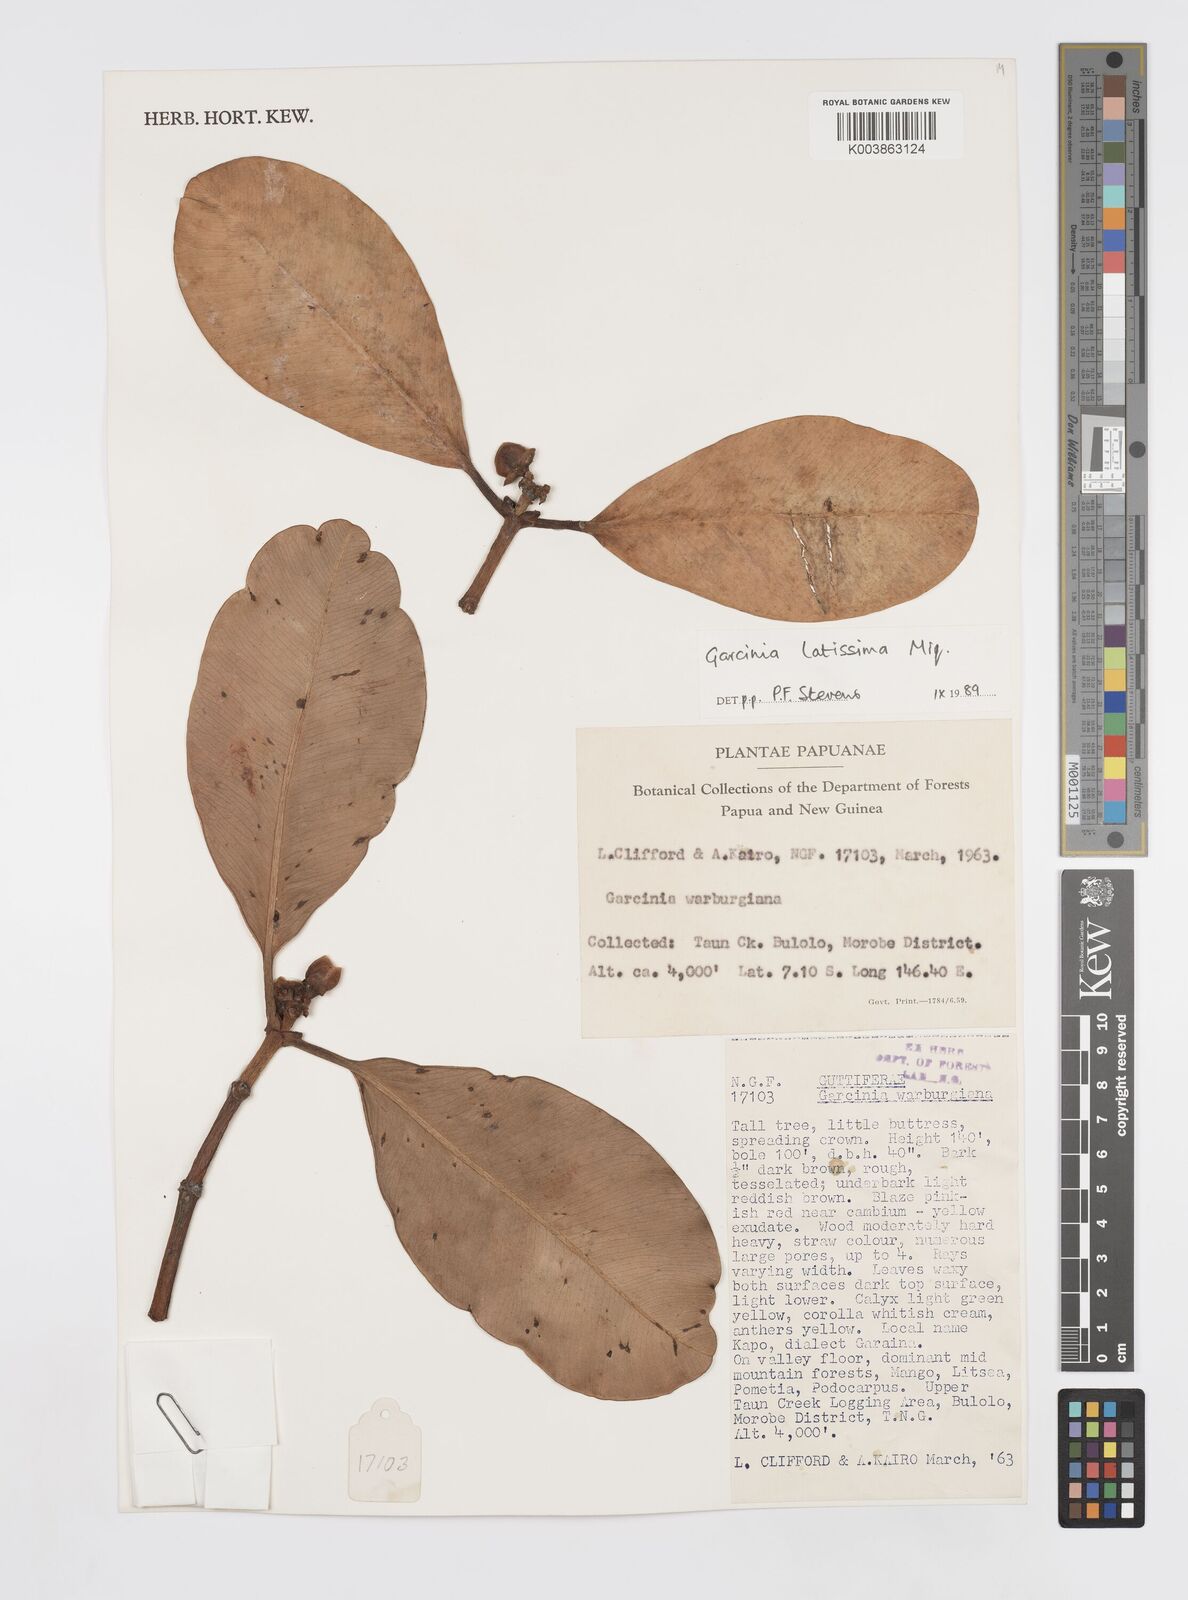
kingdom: Plantae
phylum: Tracheophyta
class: Magnoliopsida
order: Malpighiales
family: Clusiaceae
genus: Garcinia
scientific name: Garcinia latissima
